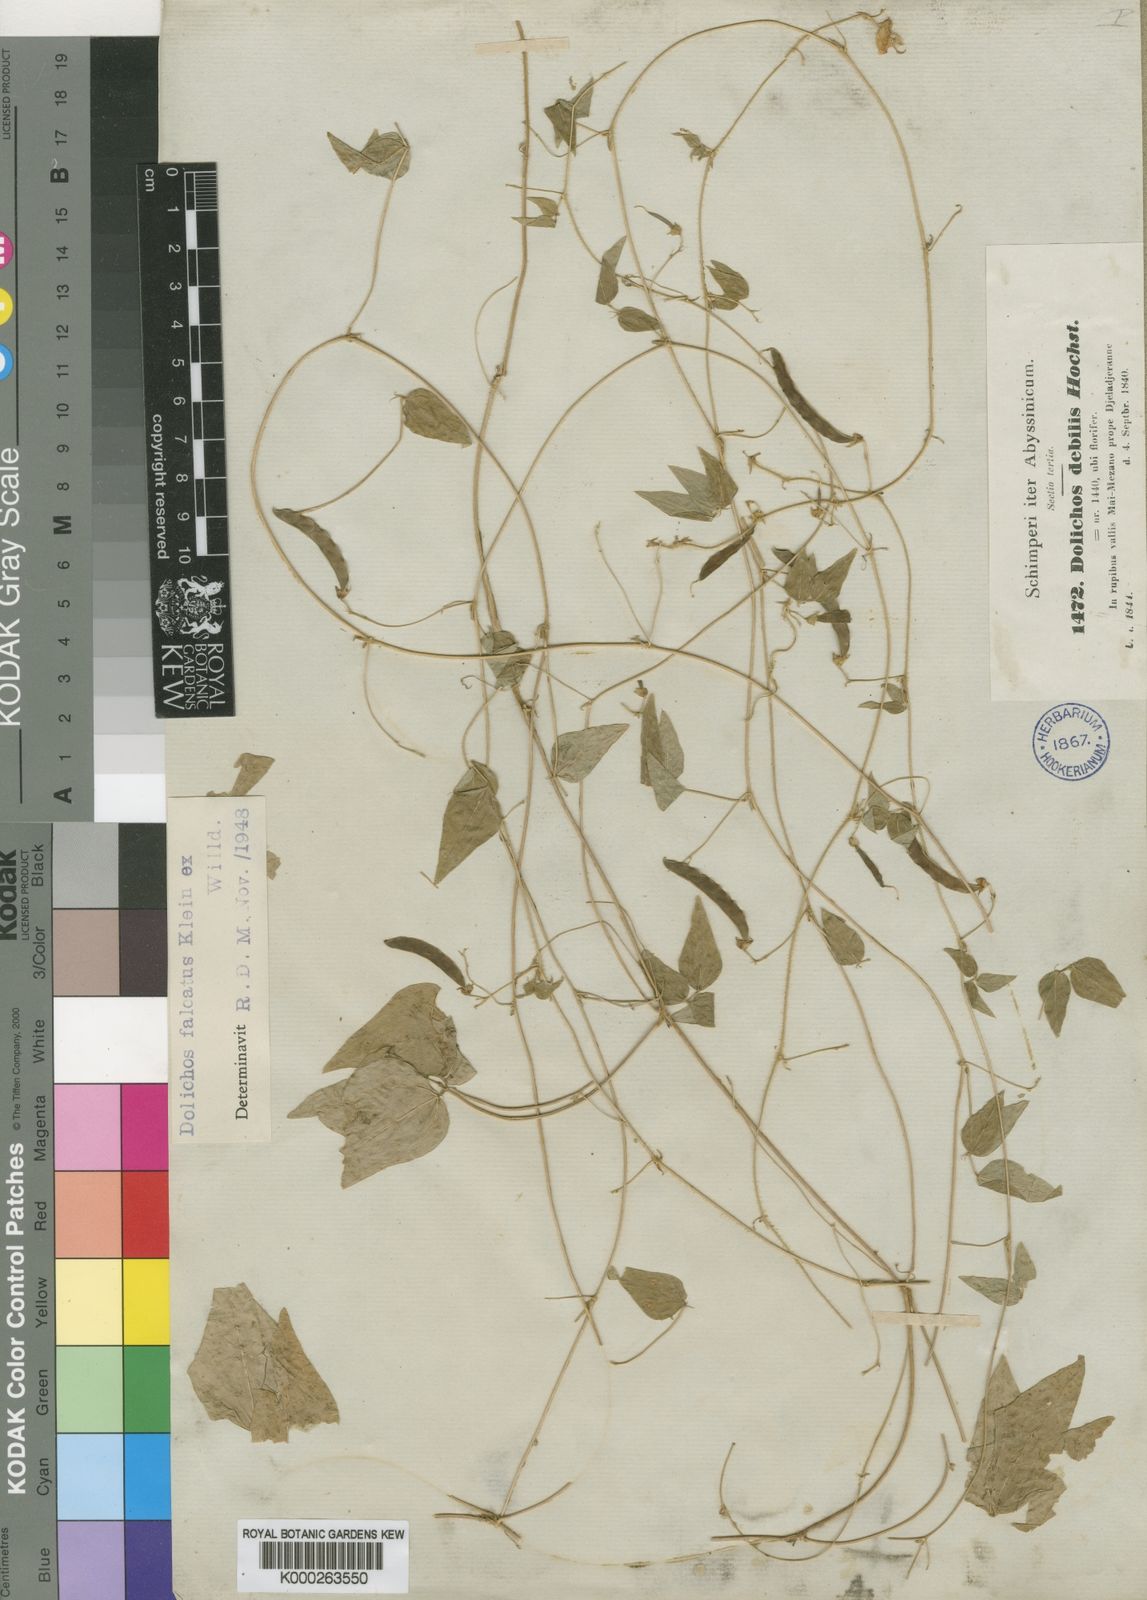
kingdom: Plantae
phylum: Tracheophyta
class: Magnoliopsida
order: Fabales
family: Fabaceae
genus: Dolichos
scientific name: Dolichos trilobus
